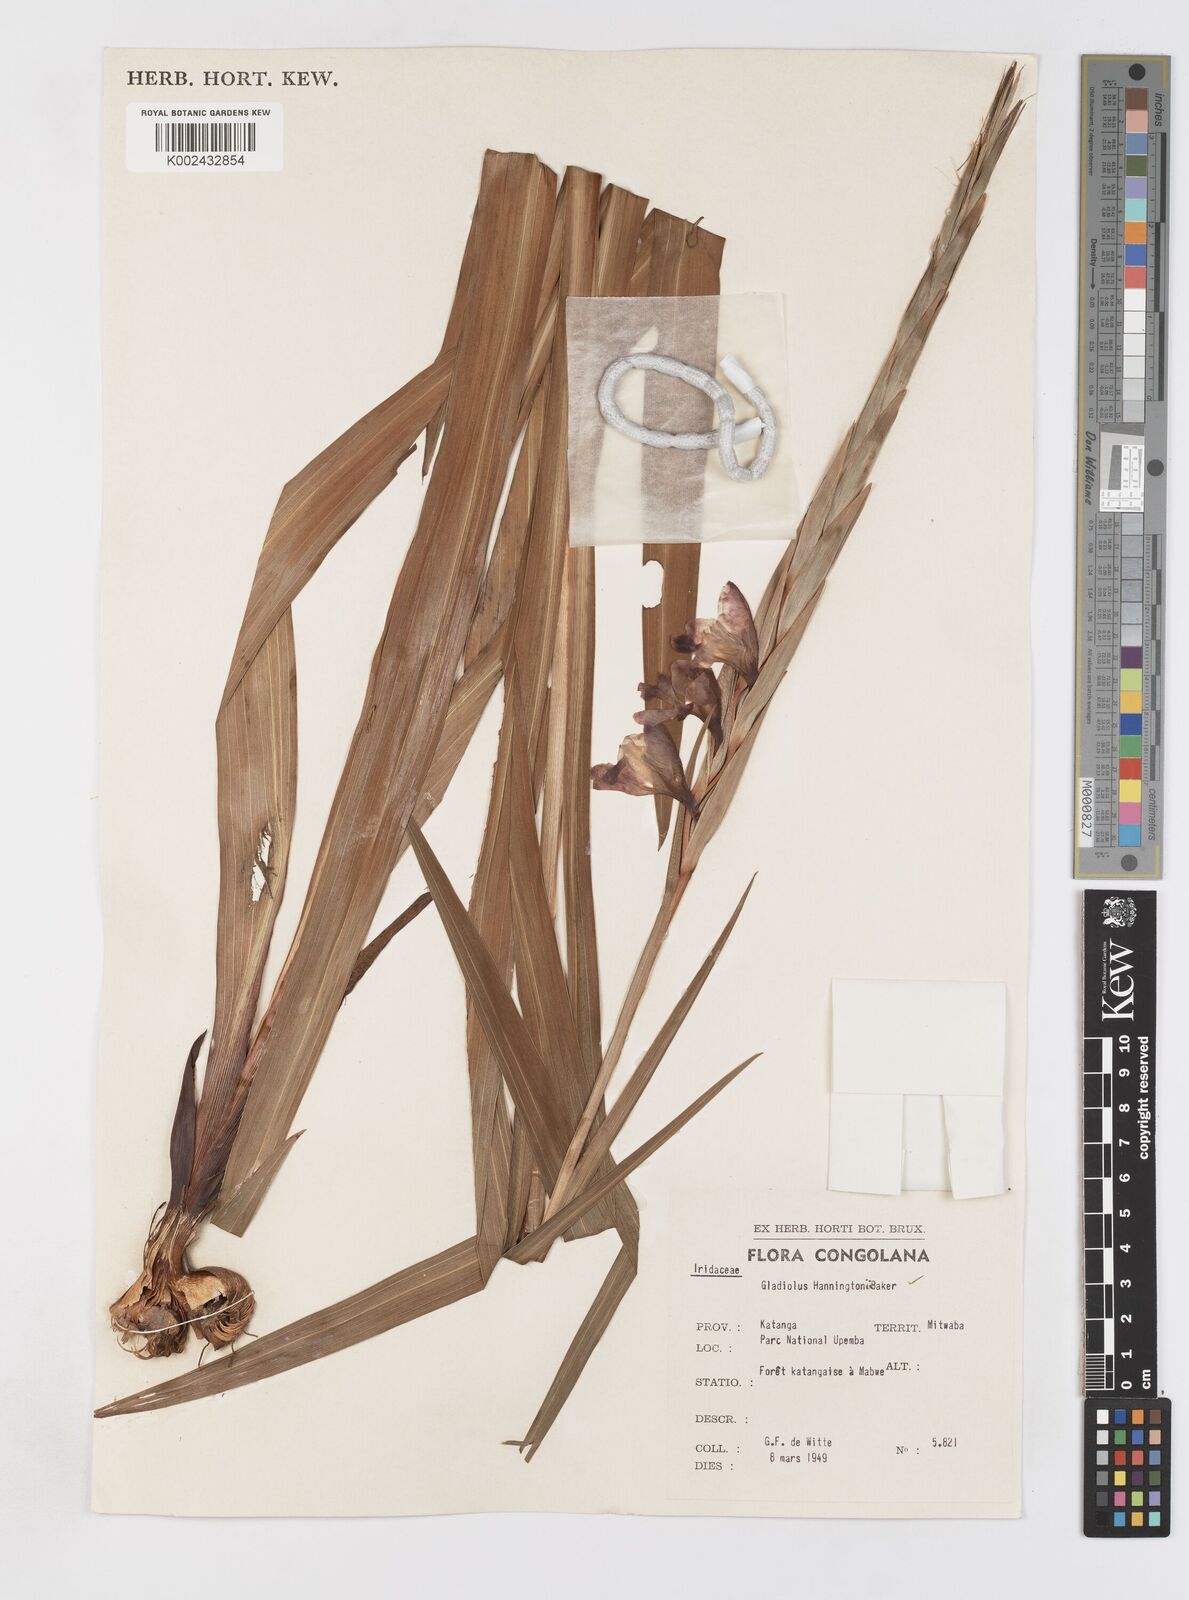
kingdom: Plantae
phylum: Tracheophyta
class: Liliopsida
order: Asparagales
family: Iridaceae
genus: Gladiolus
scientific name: Gladiolus gregarius
